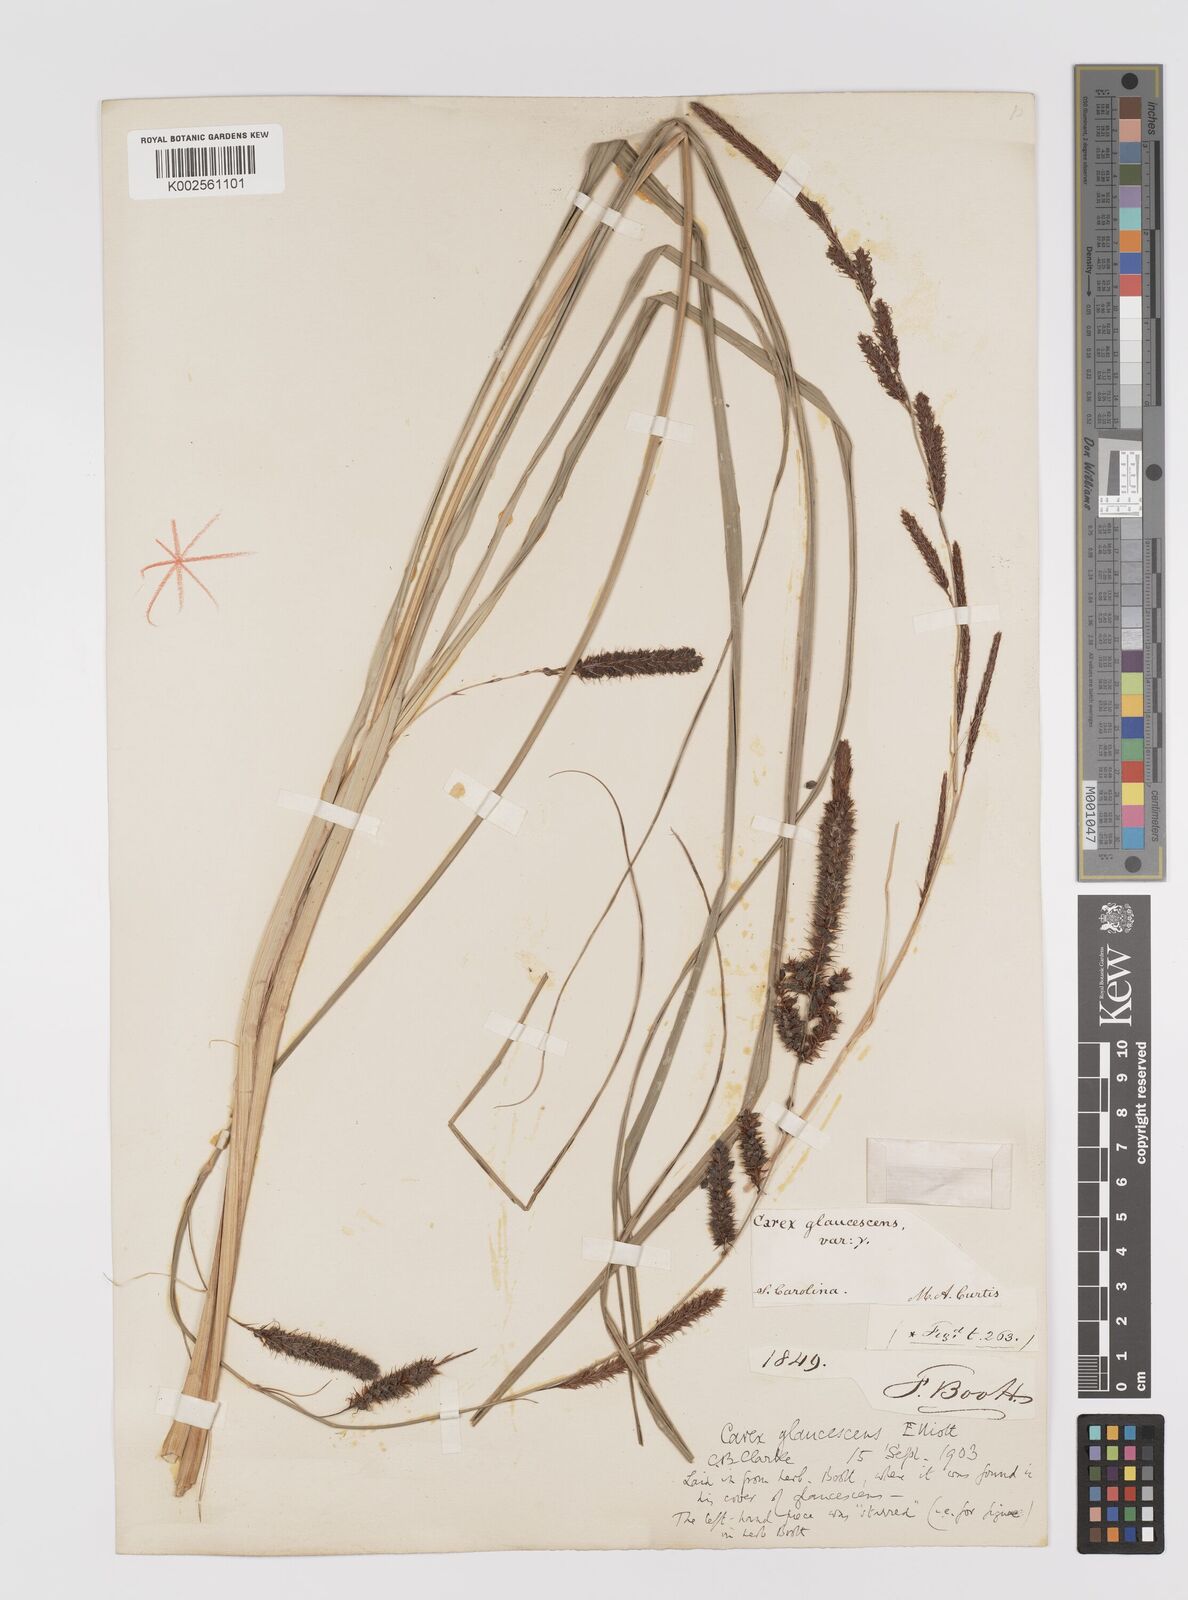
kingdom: Plantae
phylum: Tracheophyta
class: Liliopsida
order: Poales
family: Cyperaceae
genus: Carex
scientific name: Carex glaucescens
